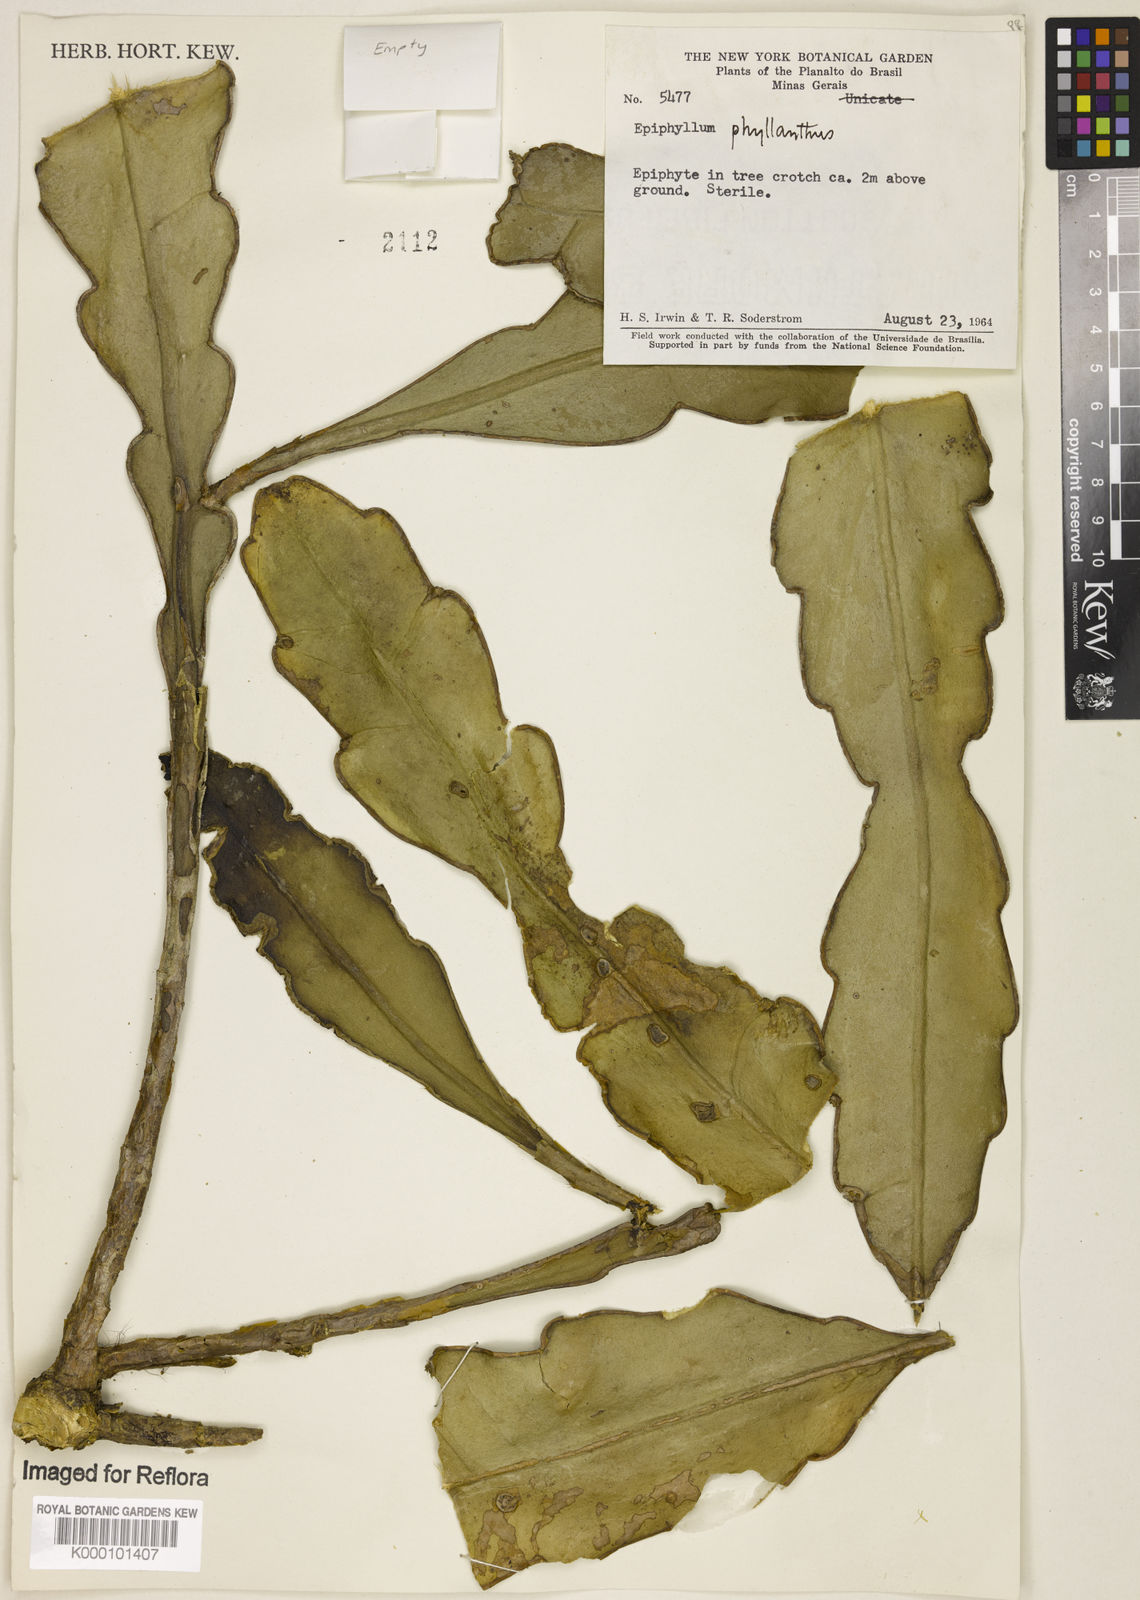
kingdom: Plantae
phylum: Tracheophyta
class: Magnoliopsida
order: Caryophyllales
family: Cactaceae
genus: Epiphyllum
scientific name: Epiphyllum phyllanthus
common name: Climbing cactus
